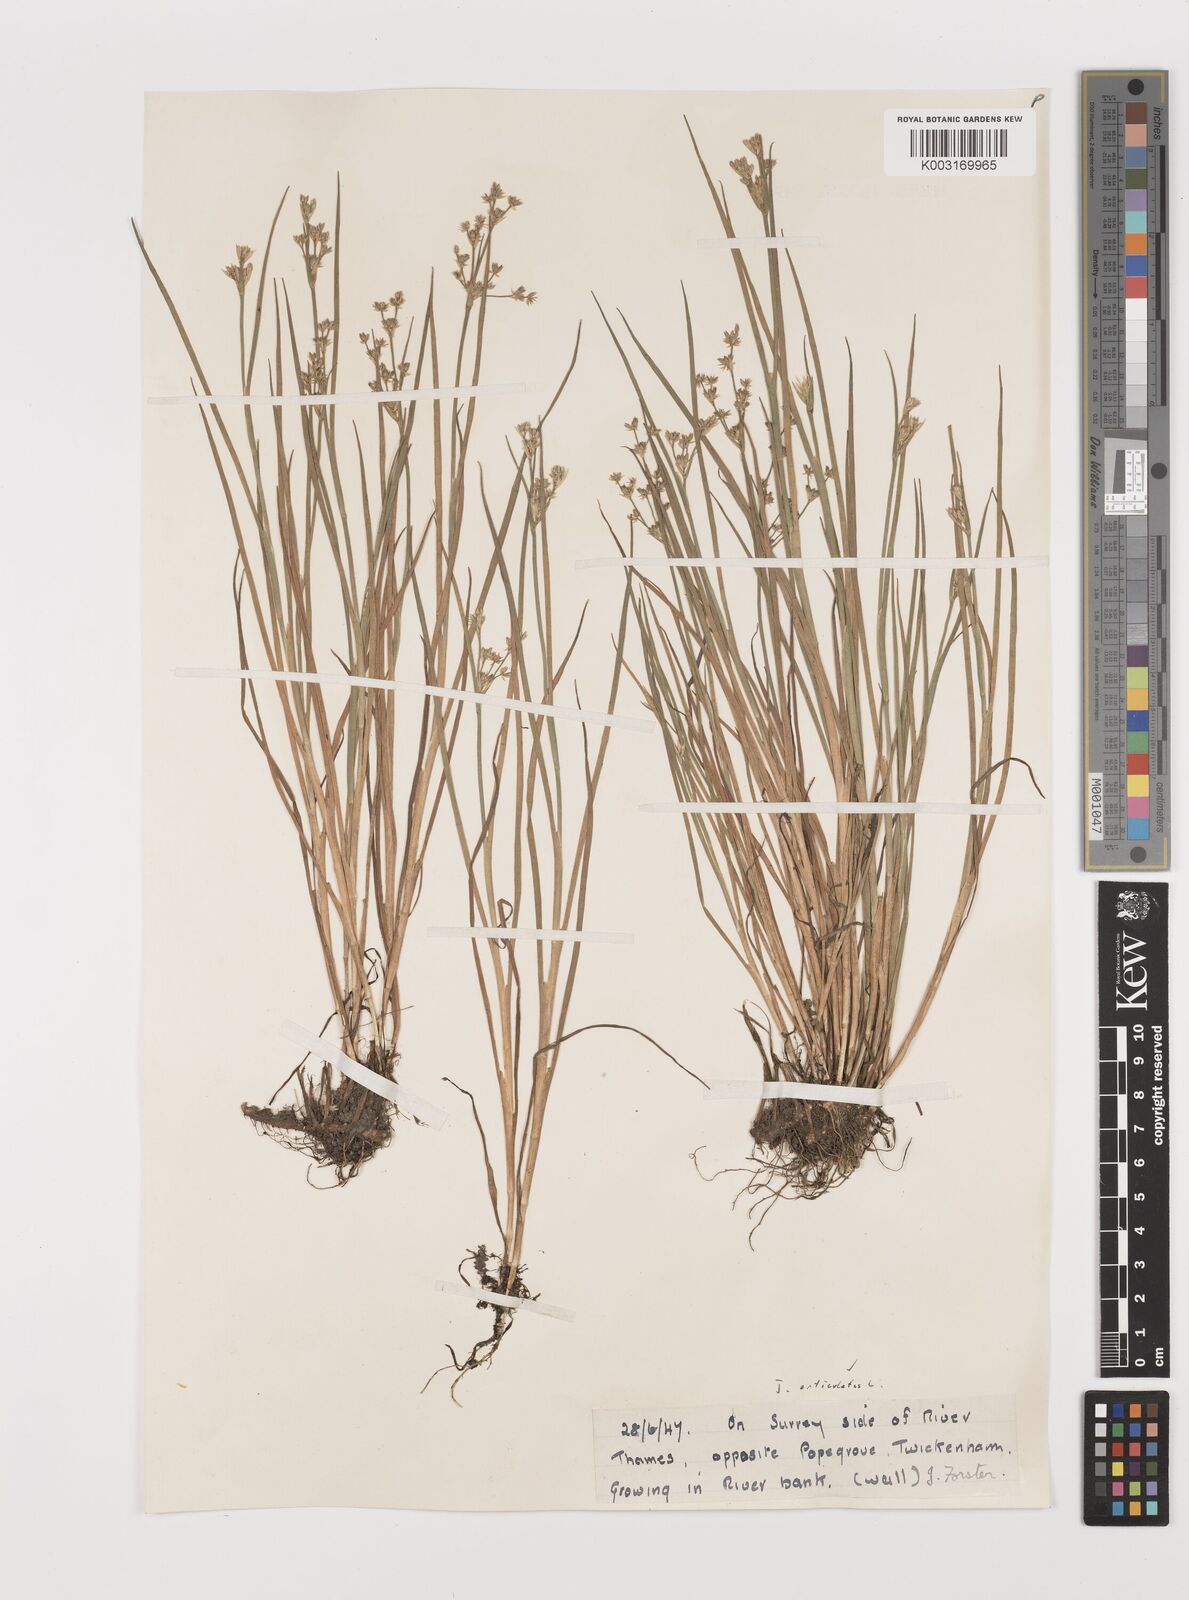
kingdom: Plantae
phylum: Tracheophyta
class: Liliopsida
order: Poales
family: Juncaceae
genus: Juncus
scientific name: Juncus articulatus
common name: Jointed rush
